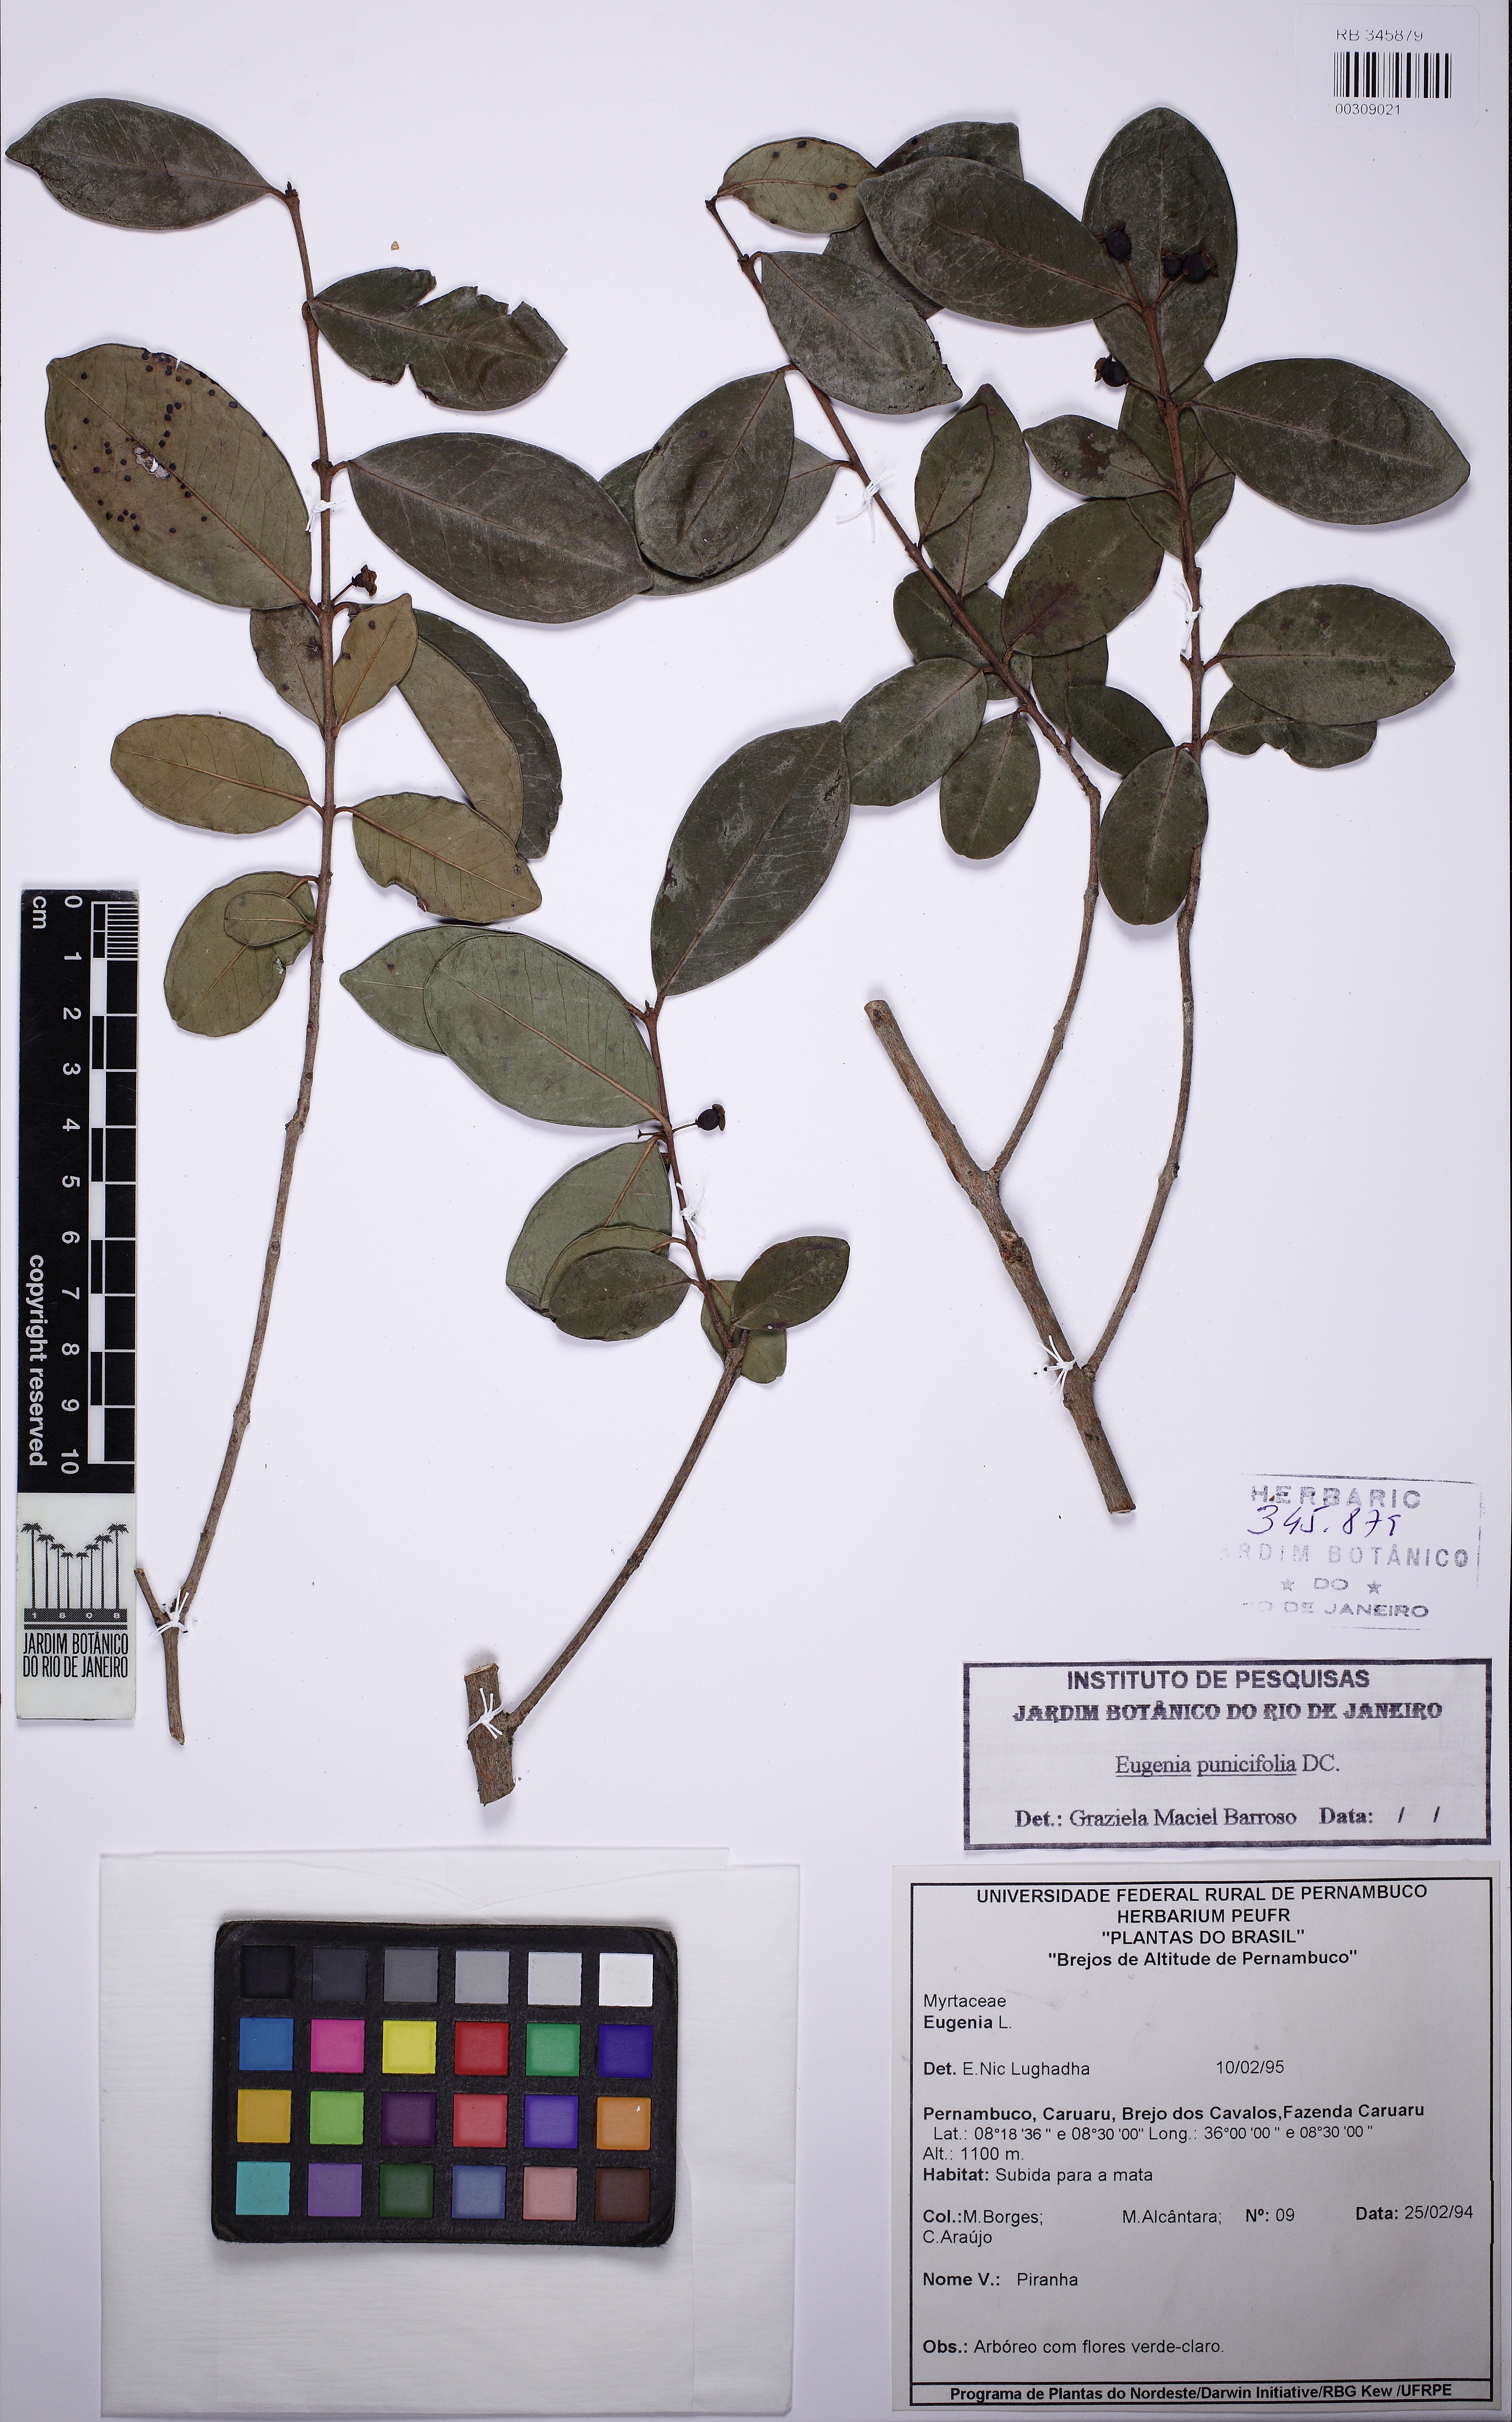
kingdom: Plantae
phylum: Tracheophyta
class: Magnoliopsida
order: Myrtales
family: Myrtaceae
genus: Eugenia
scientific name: Eugenia punicifolia
